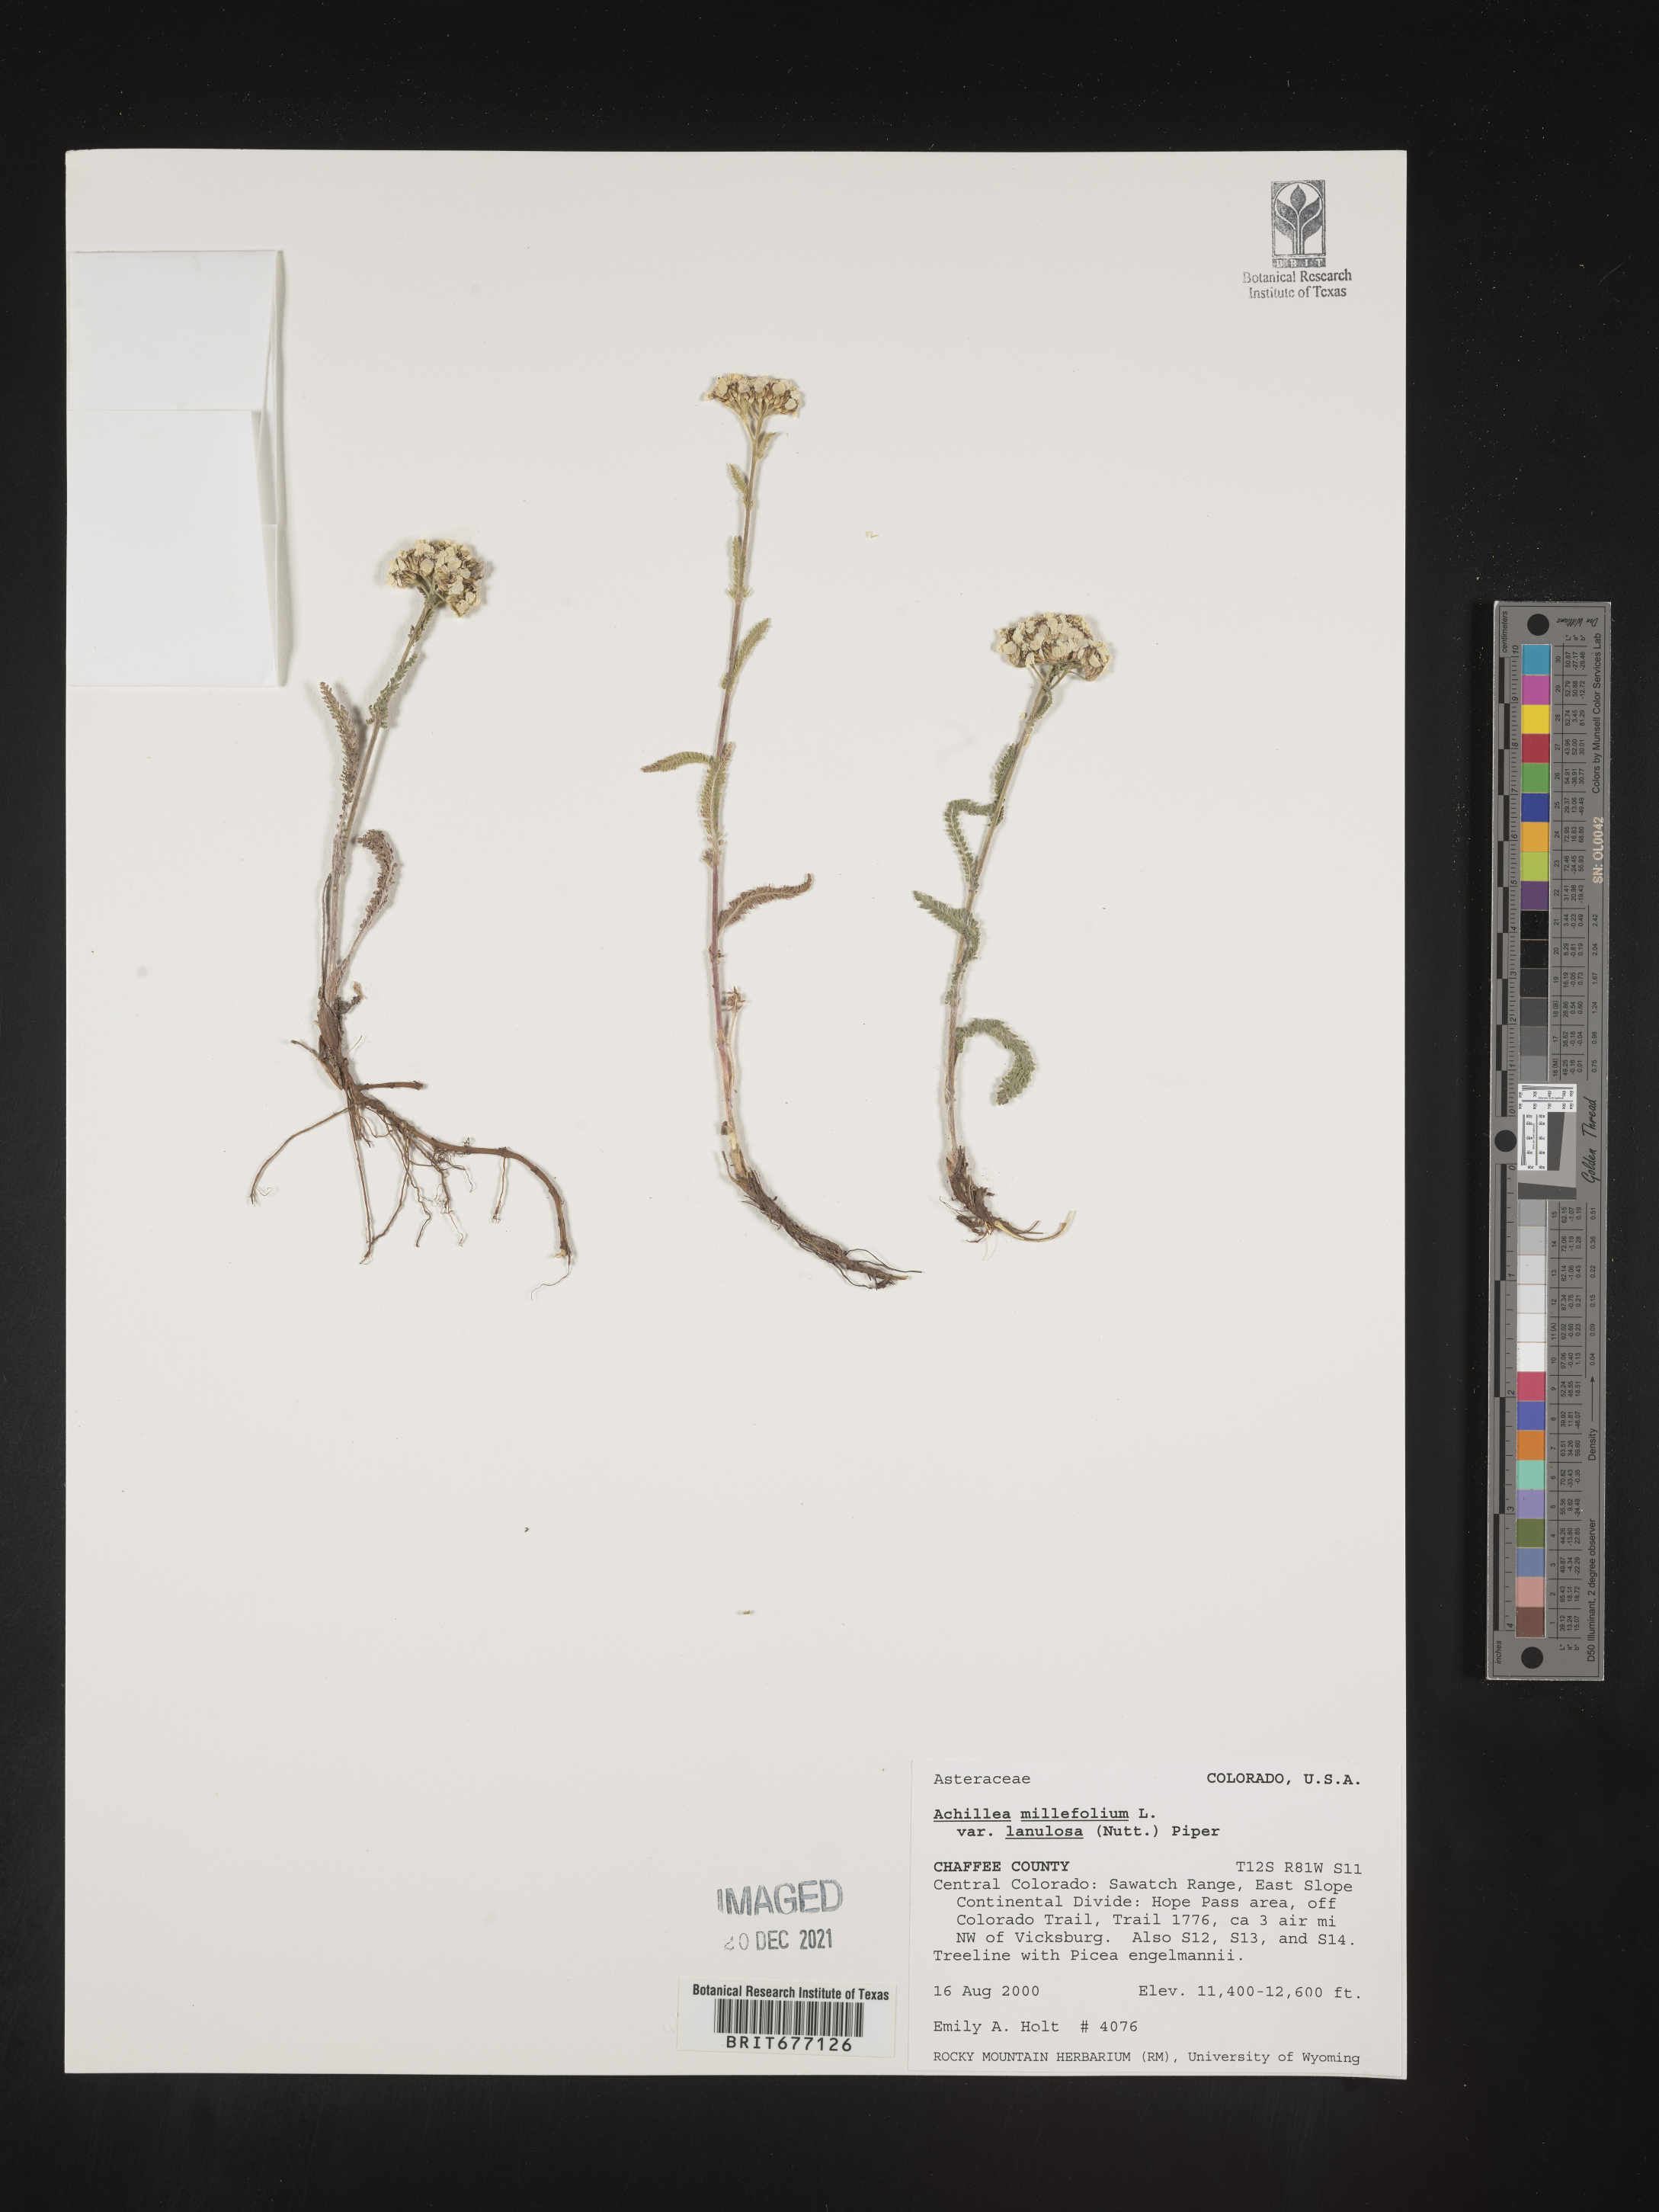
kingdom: Plantae
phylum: Tracheophyta
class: Magnoliopsida
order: Asterales
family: Asteraceae
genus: Achillea
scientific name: Achillea millefolium
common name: Yarrow
